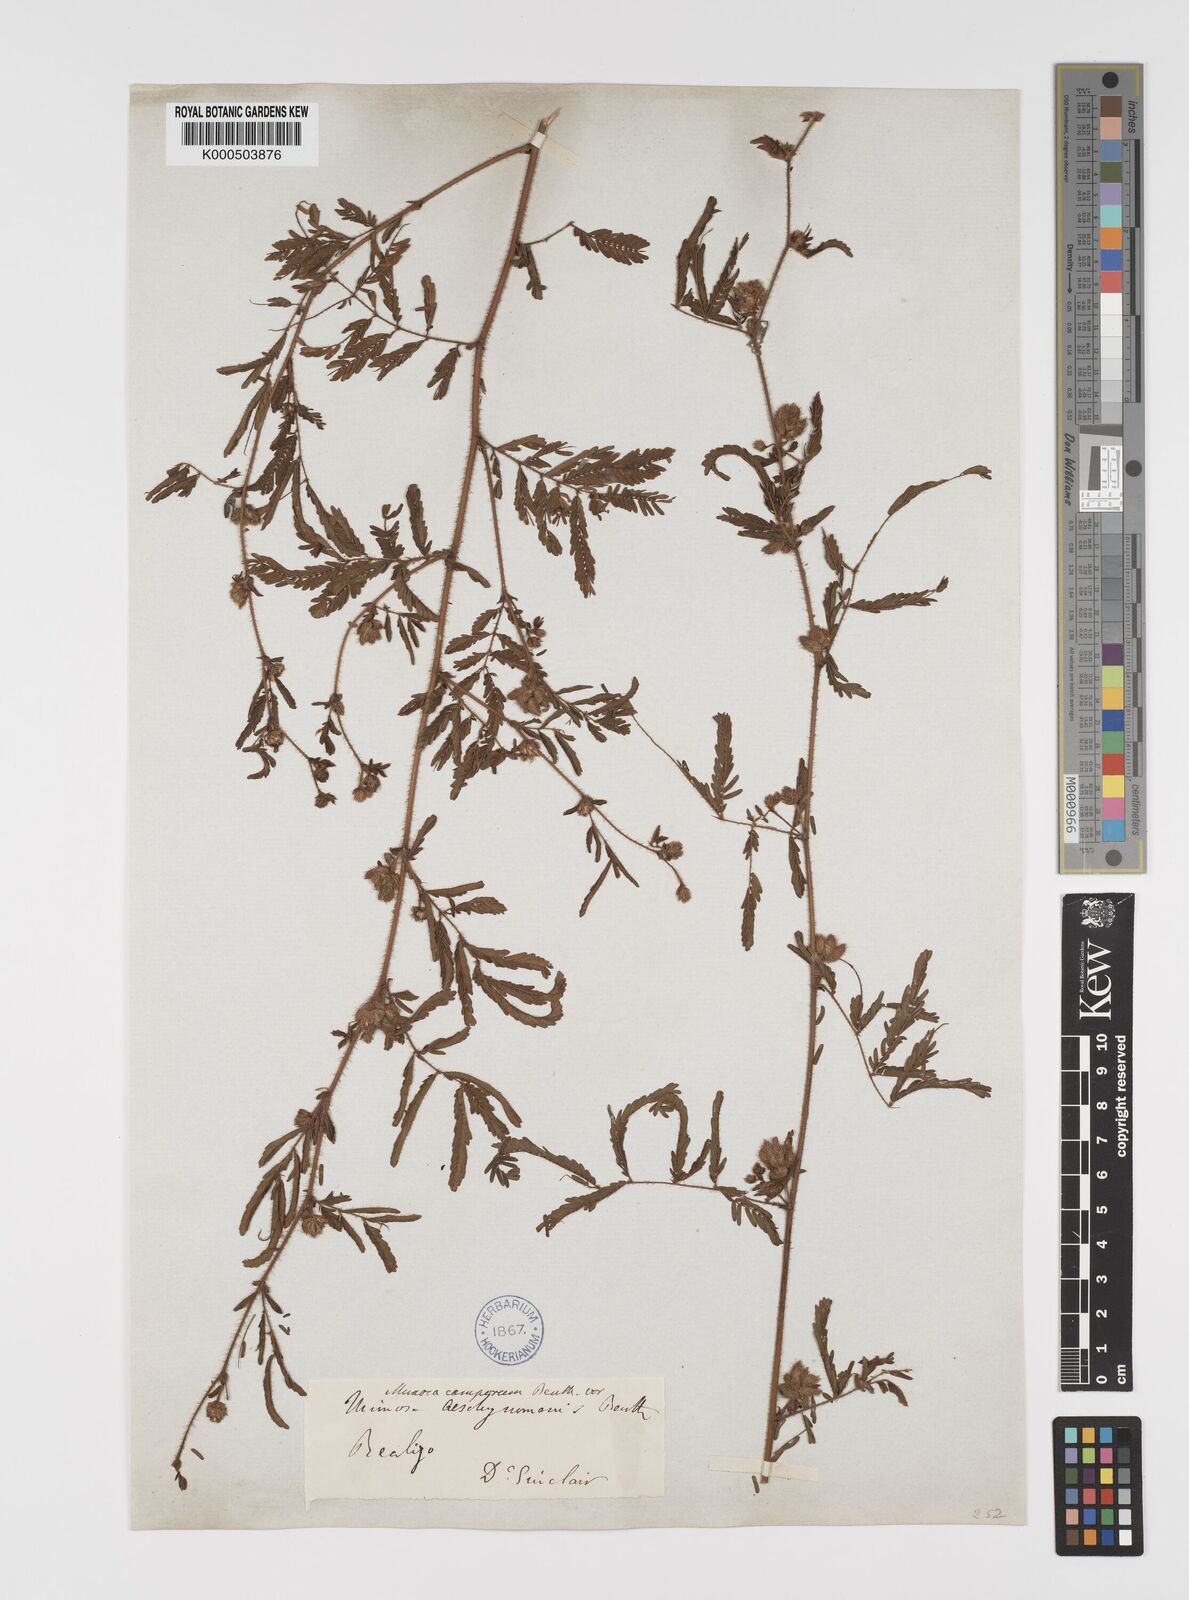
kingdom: Plantae
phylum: Tracheophyta
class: Magnoliopsida
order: Fabales
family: Fabaceae
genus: Mimosa
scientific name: Mimosa camporum
